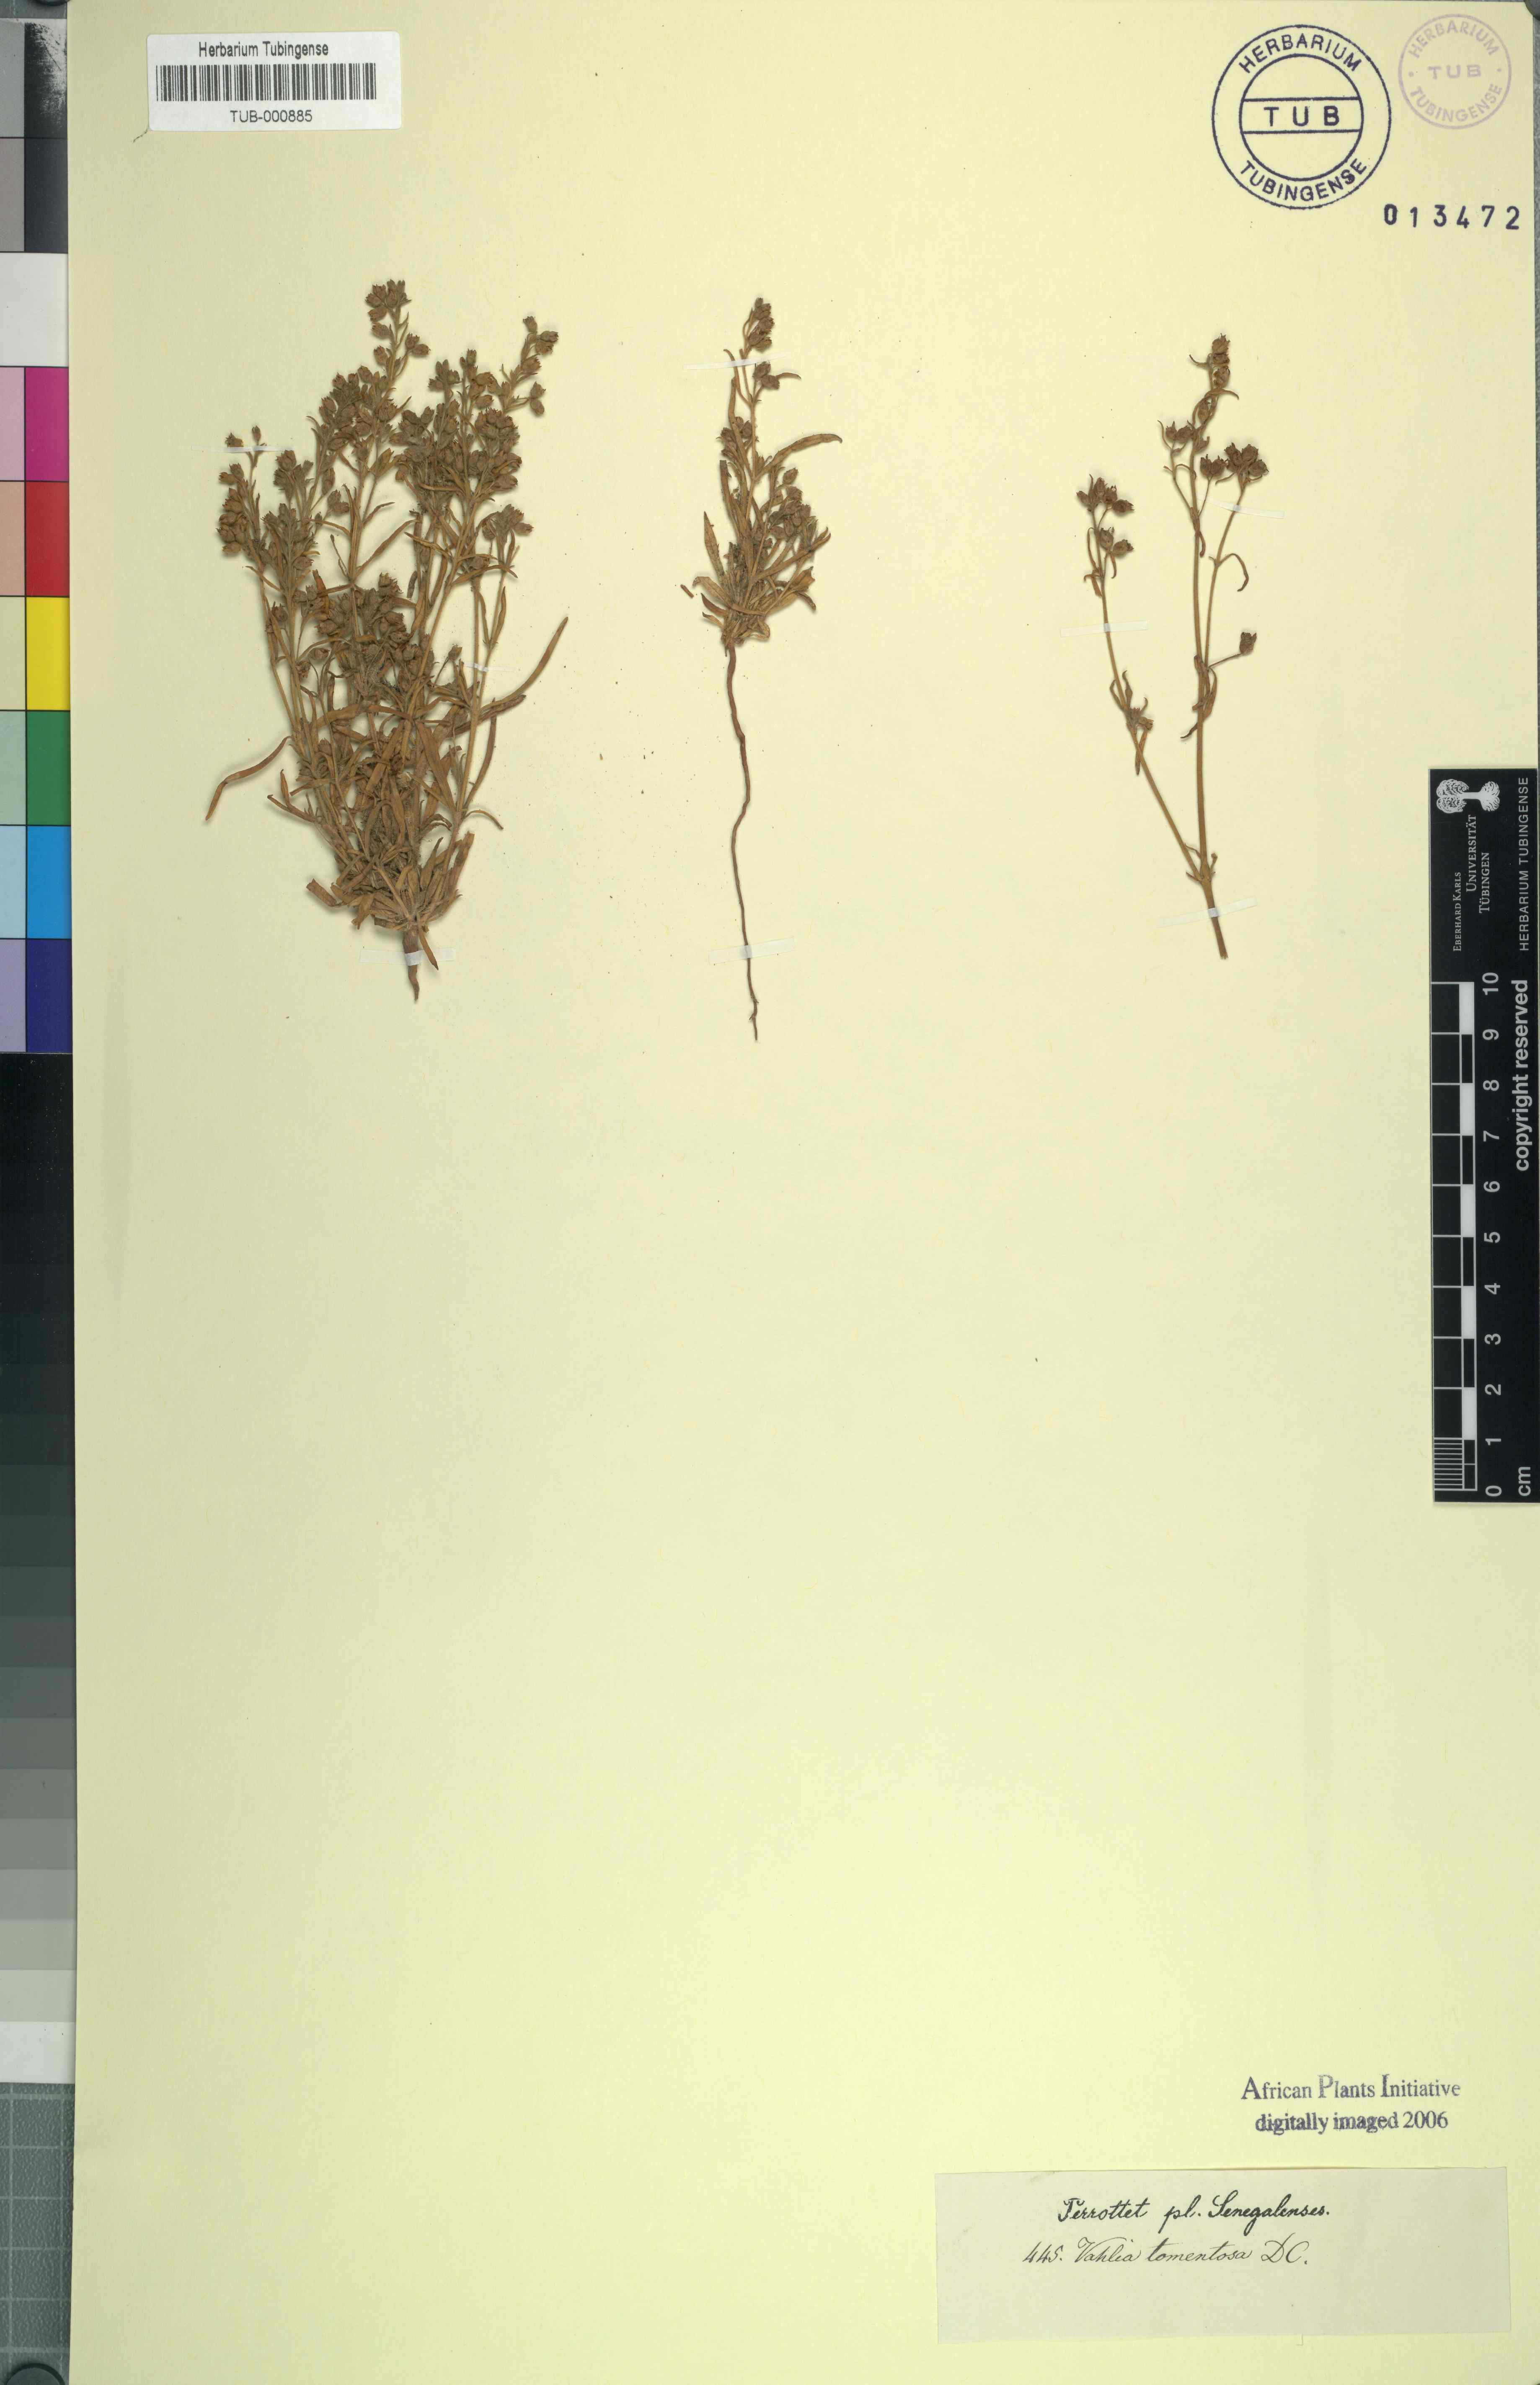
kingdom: Plantae
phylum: Tracheophyta
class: Magnoliopsida
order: Vahliales
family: Vahliaceae
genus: Vahlia
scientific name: Vahlia dichotoma
